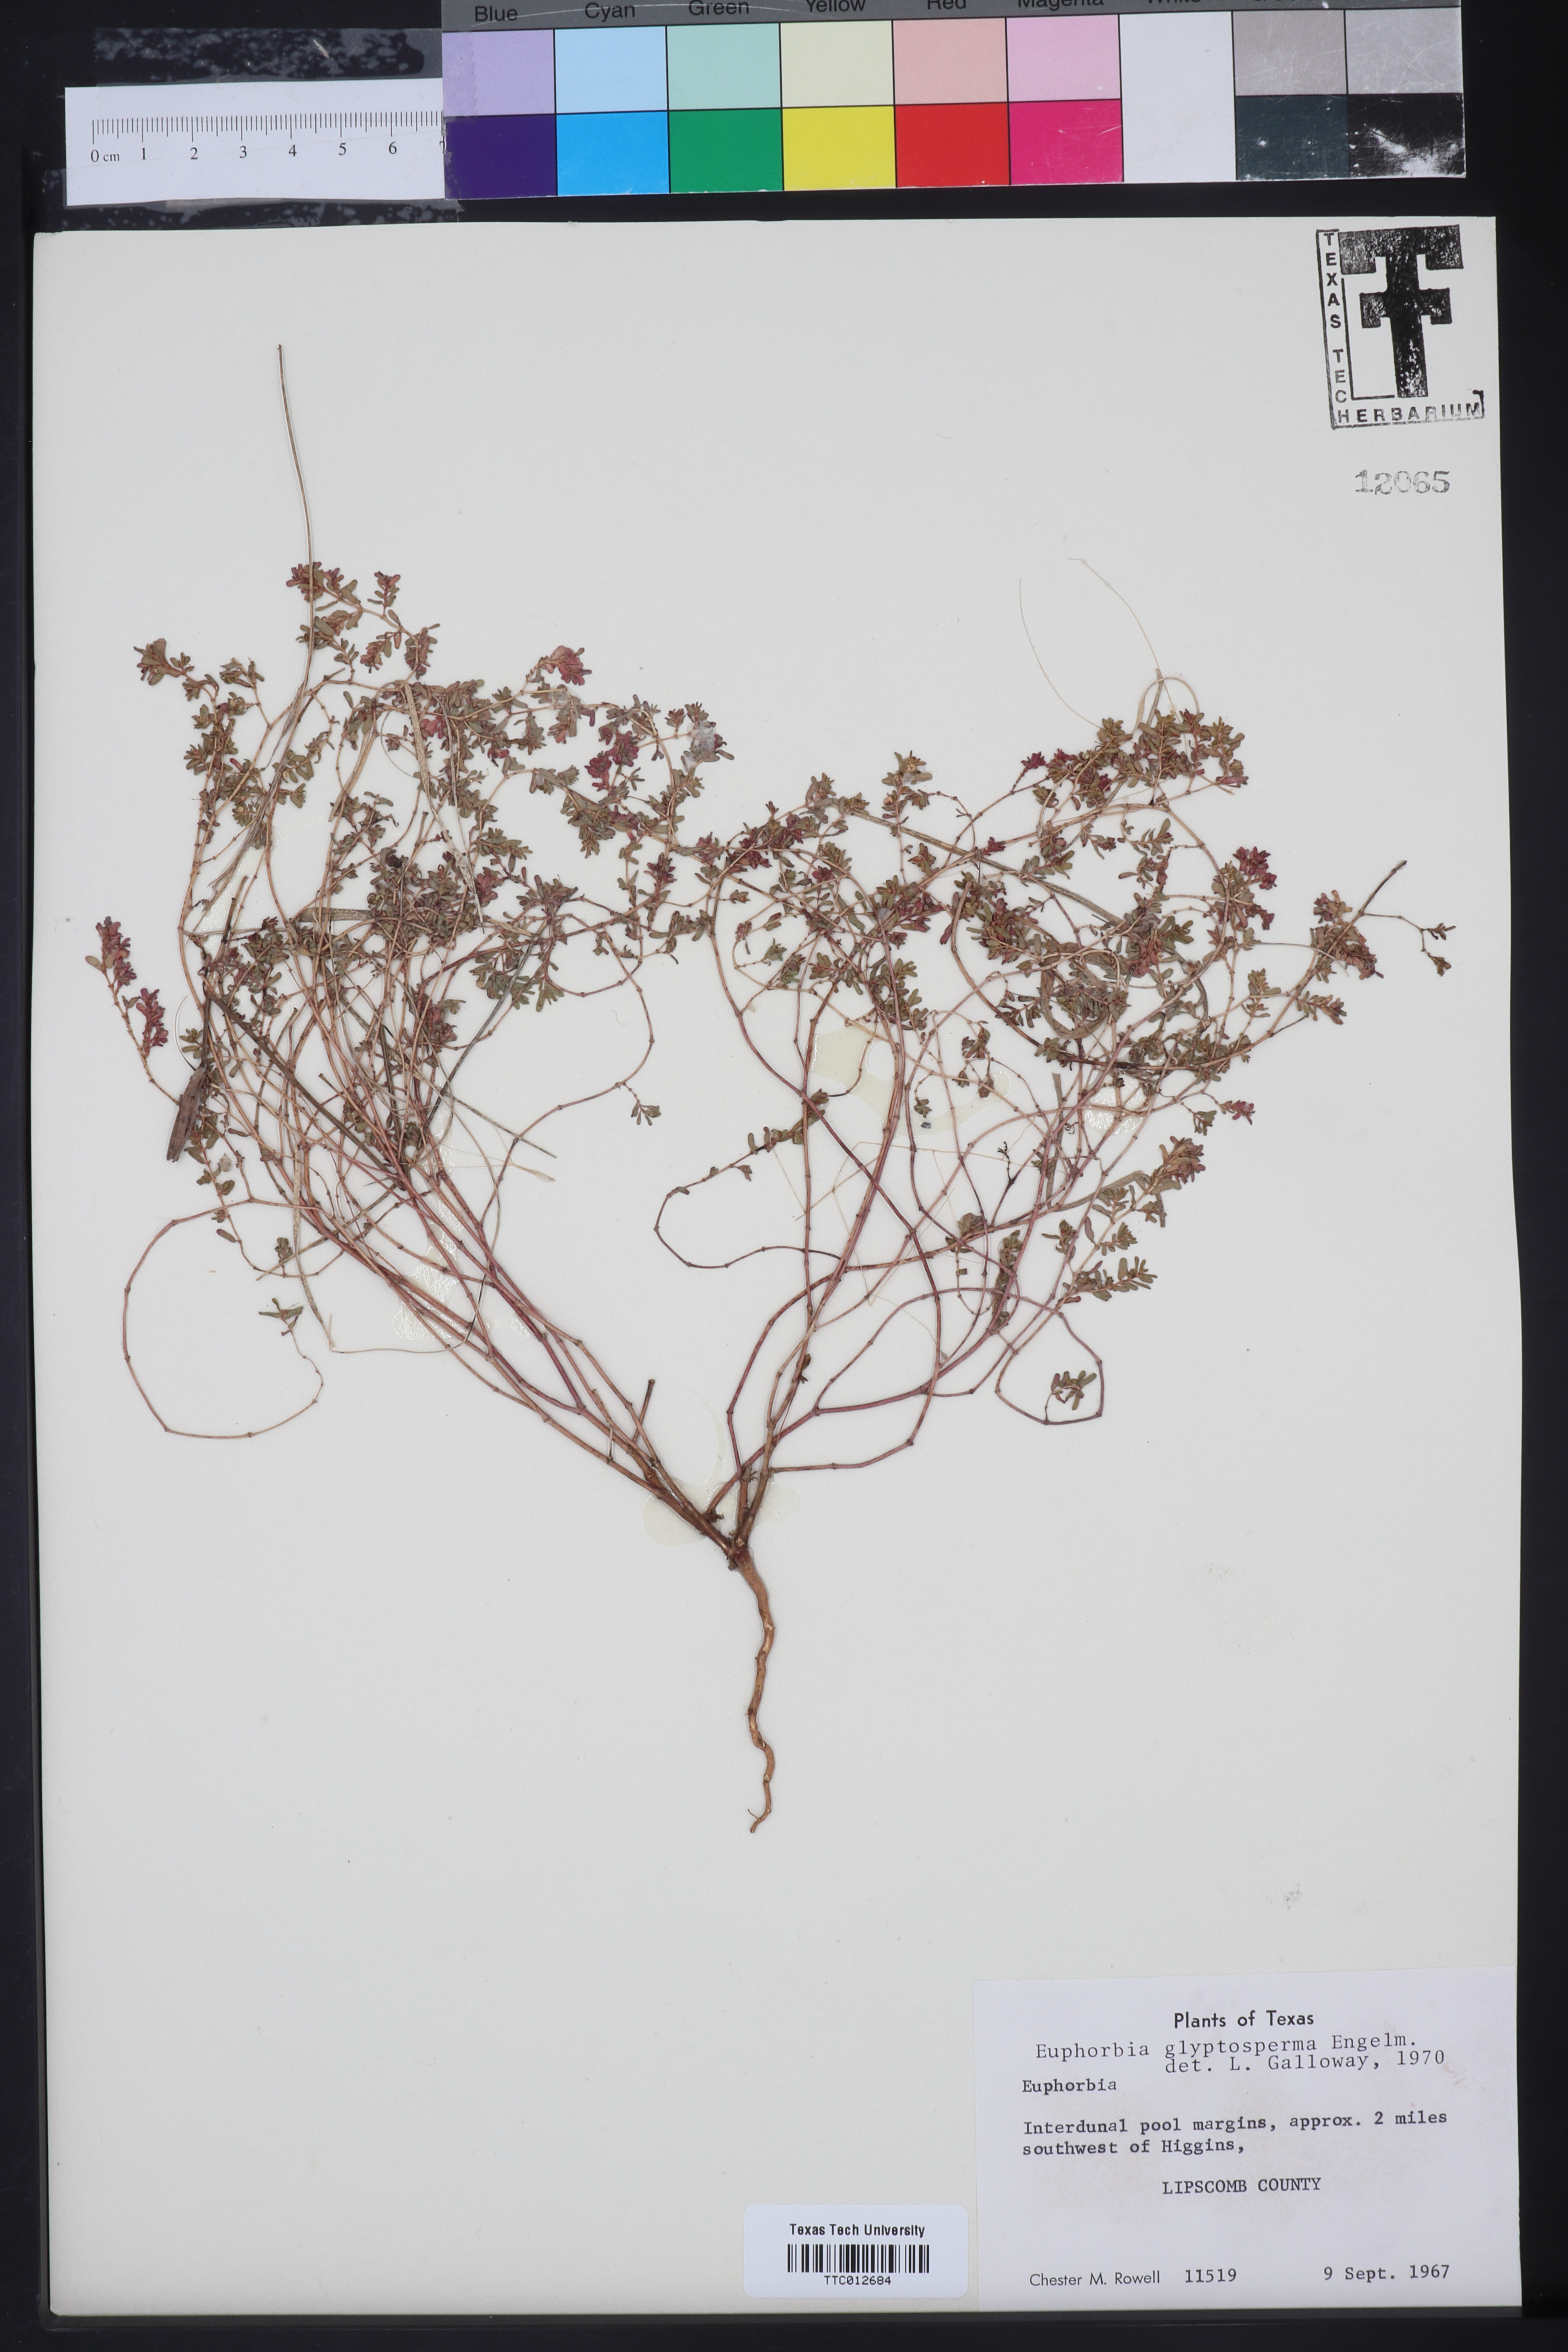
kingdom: Plantae
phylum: Tracheophyta
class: Magnoliopsida
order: Malpighiales
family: Euphorbiaceae
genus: Euphorbia
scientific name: Euphorbia glyptosperma
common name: Corrugate-seeded spurge
